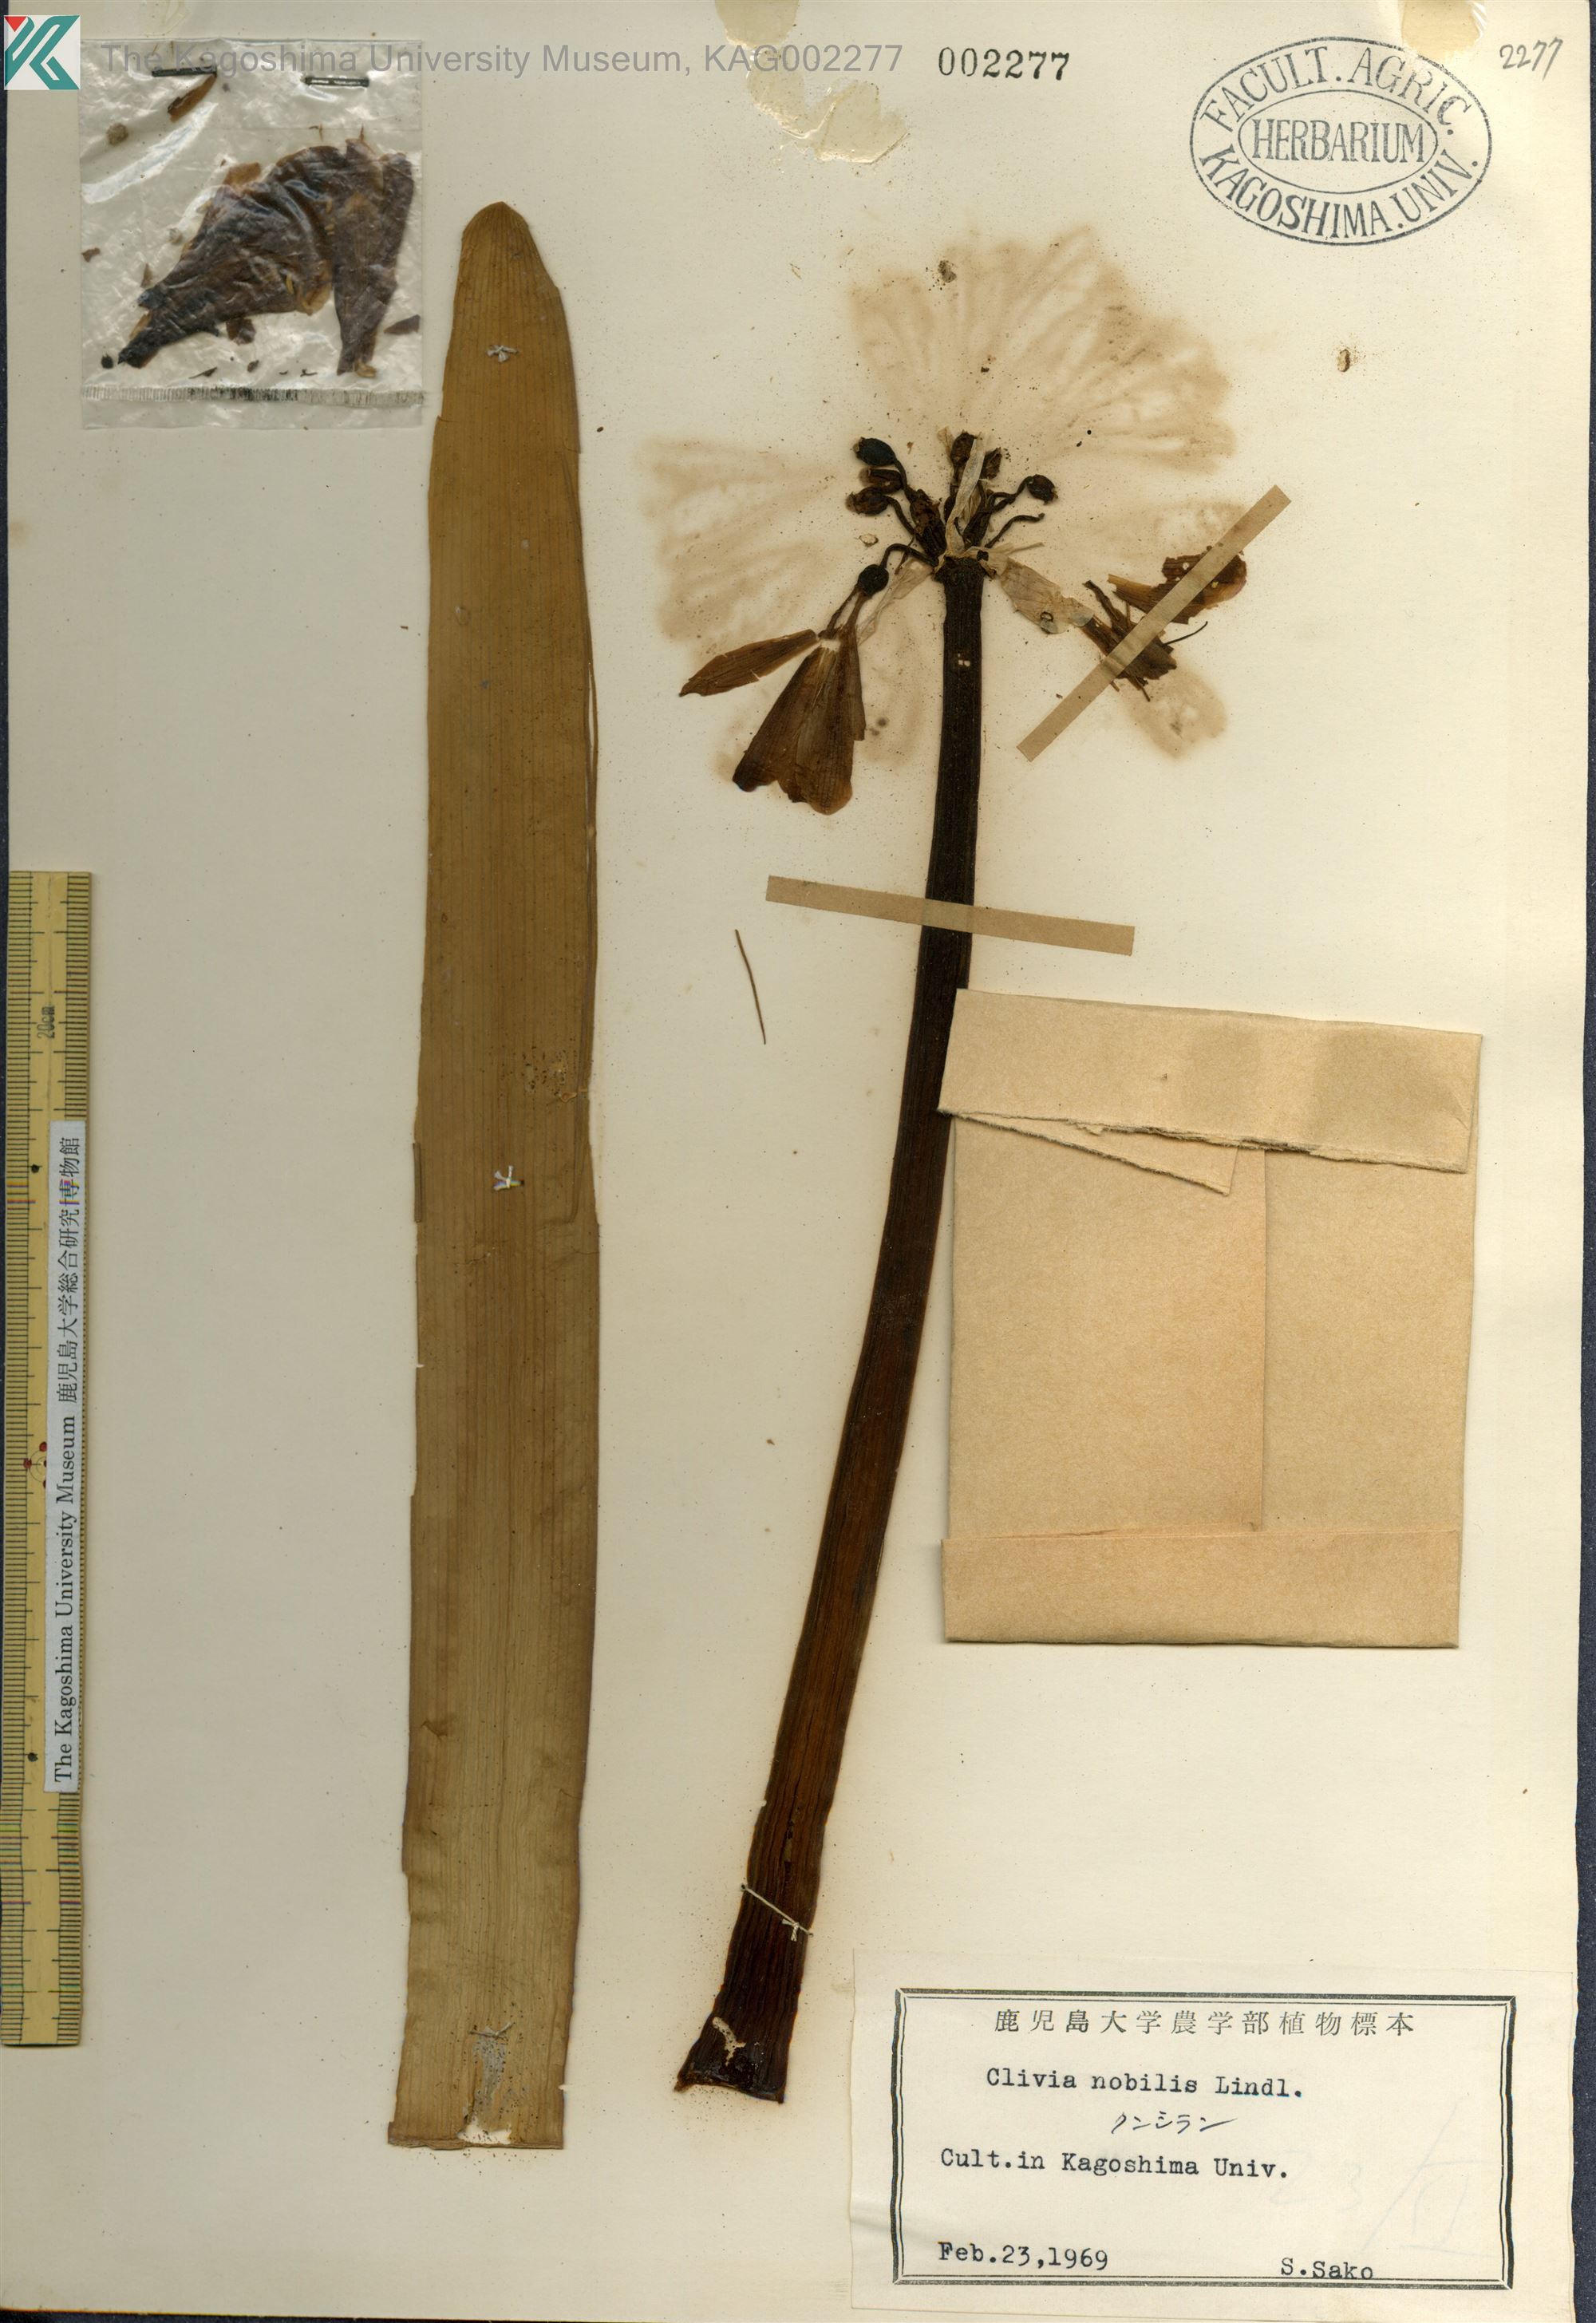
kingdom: Plantae
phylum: Tracheophyta
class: Liliopsida
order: Asparagales
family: Amaryllidaceae
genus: Clivia
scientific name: Clivia nobilis
